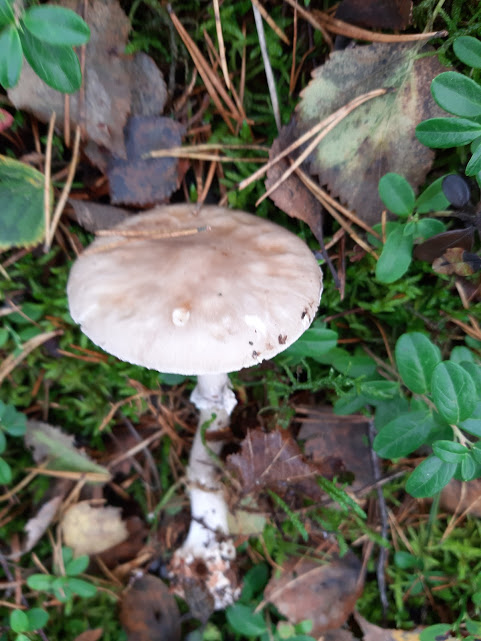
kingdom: Fungi
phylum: Basidiomycota
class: Agaricomycetes
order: Agaricales
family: Amanitaceae
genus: Amanita
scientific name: Amanita rubescens
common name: rødmende fluesvamp
